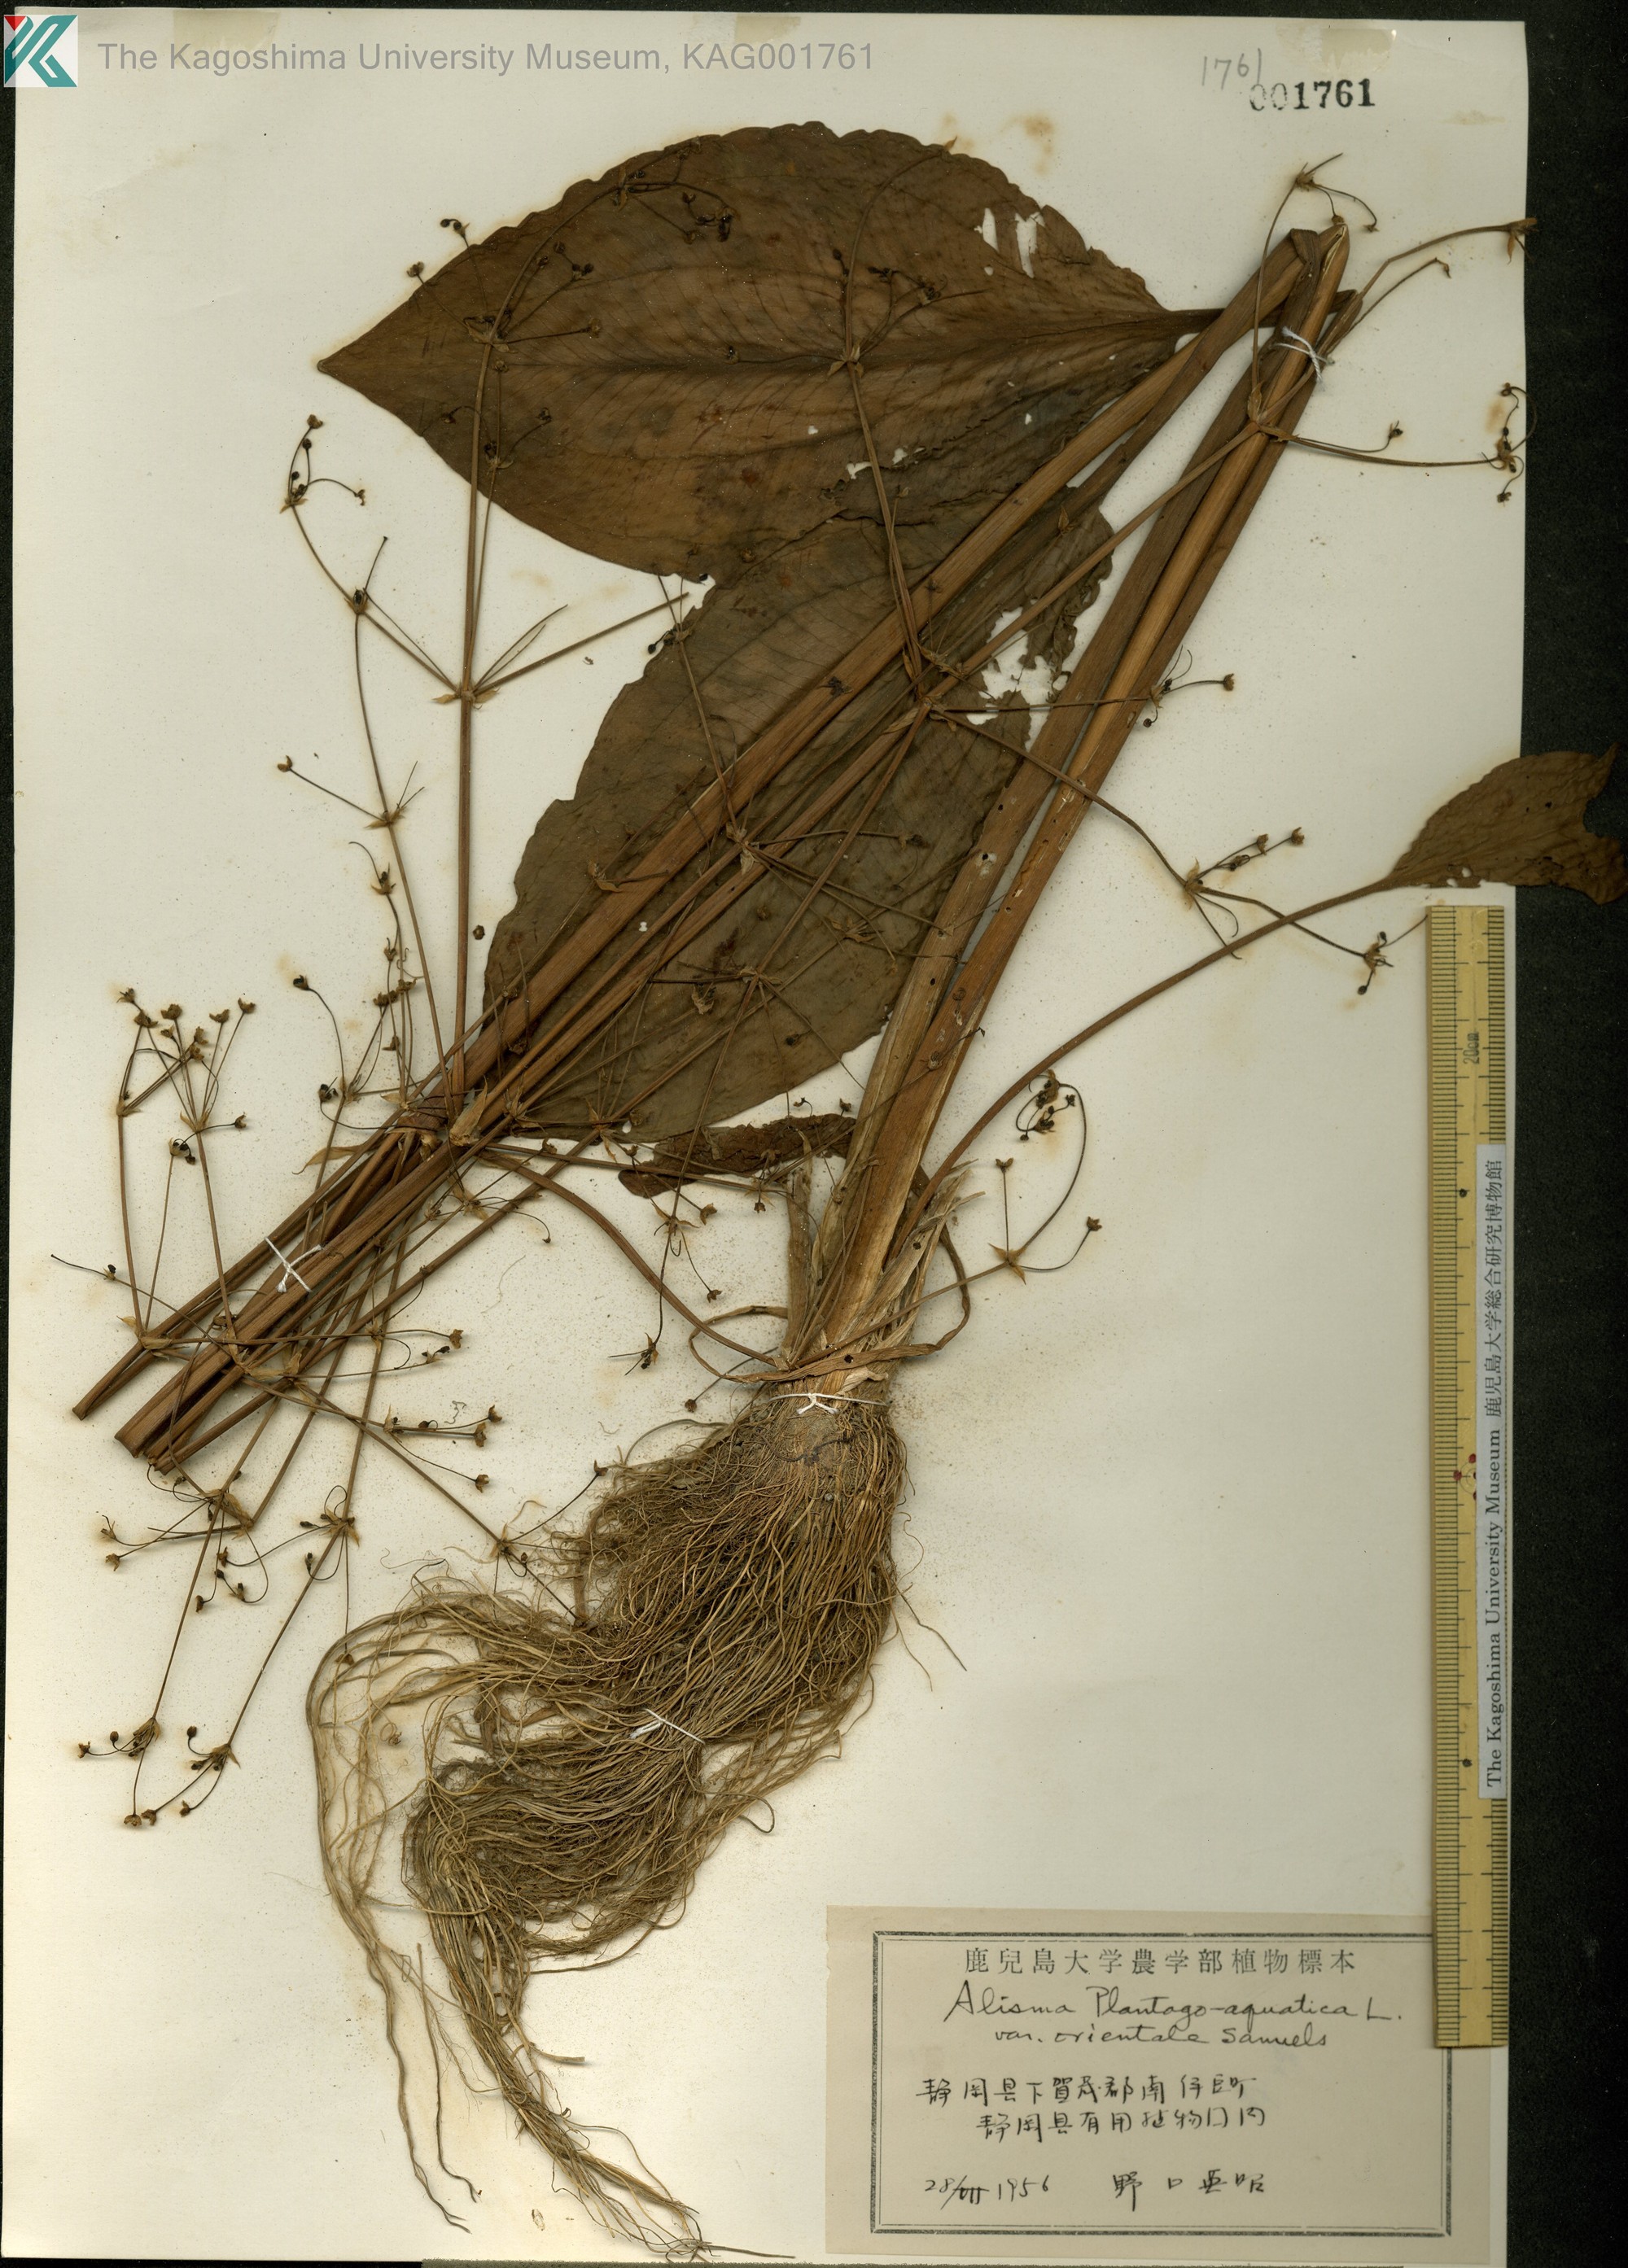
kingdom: Plantae
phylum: Tracheophyta
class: Liliopsida
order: Alismatales
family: Alismataceae
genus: Alisma
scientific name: Alisma plantago-aquatica
